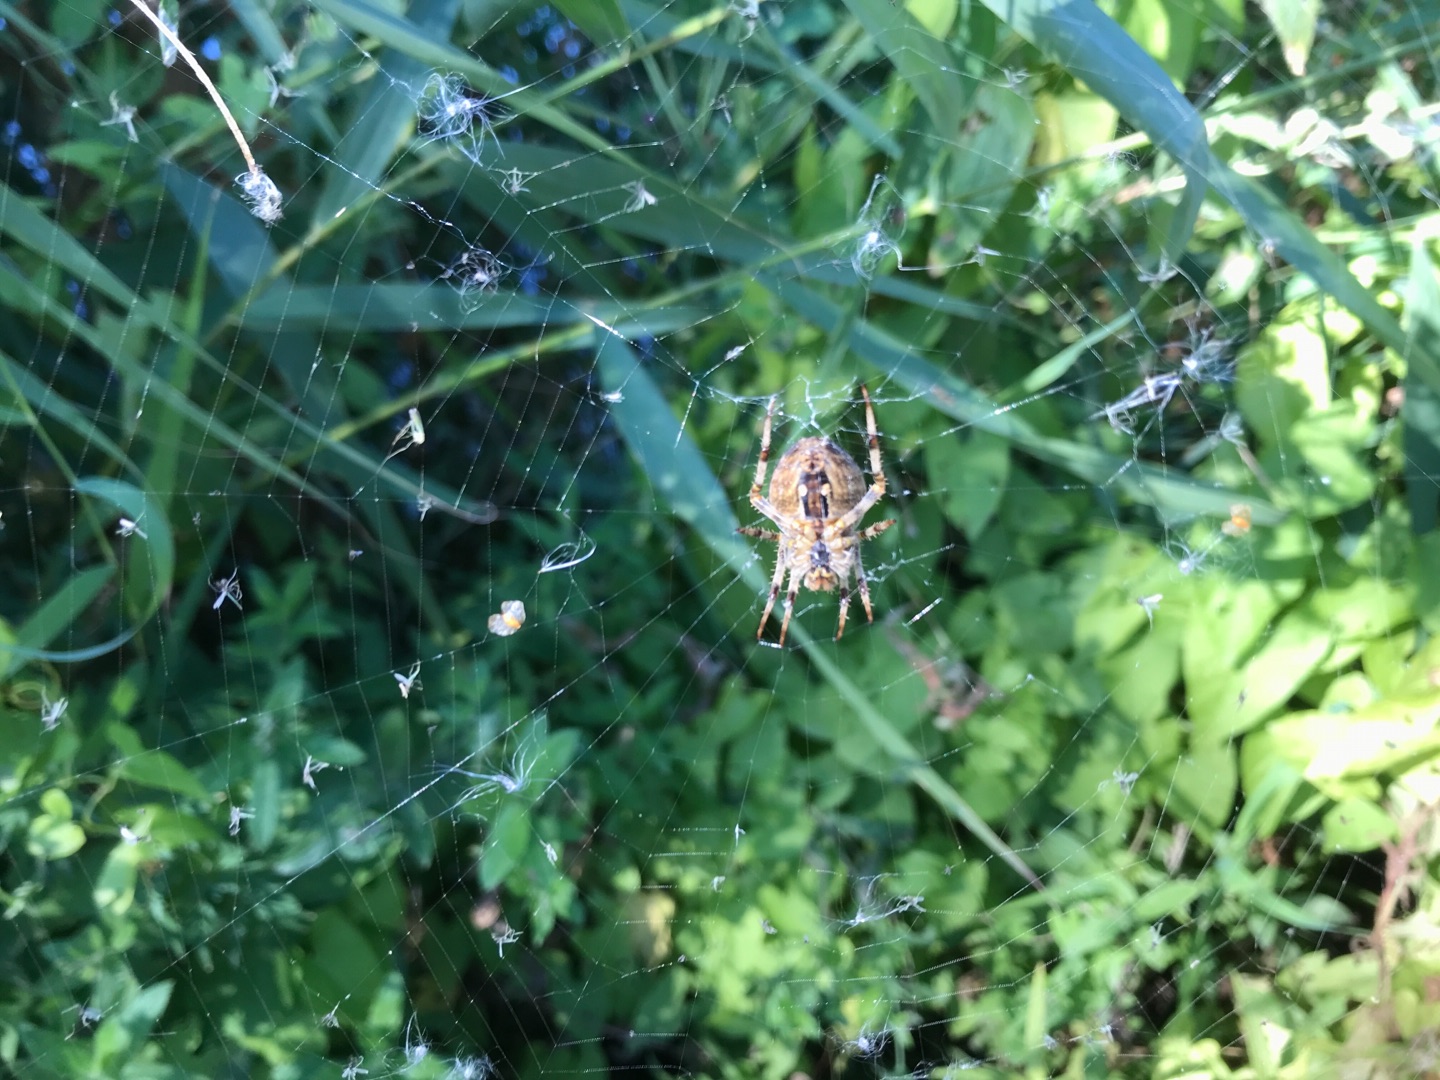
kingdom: Animalia
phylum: Arthropoda
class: Arachnida
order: Araneae
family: Araneidae
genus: Araneus
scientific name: Araneus diadematus
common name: Korsedderkop
